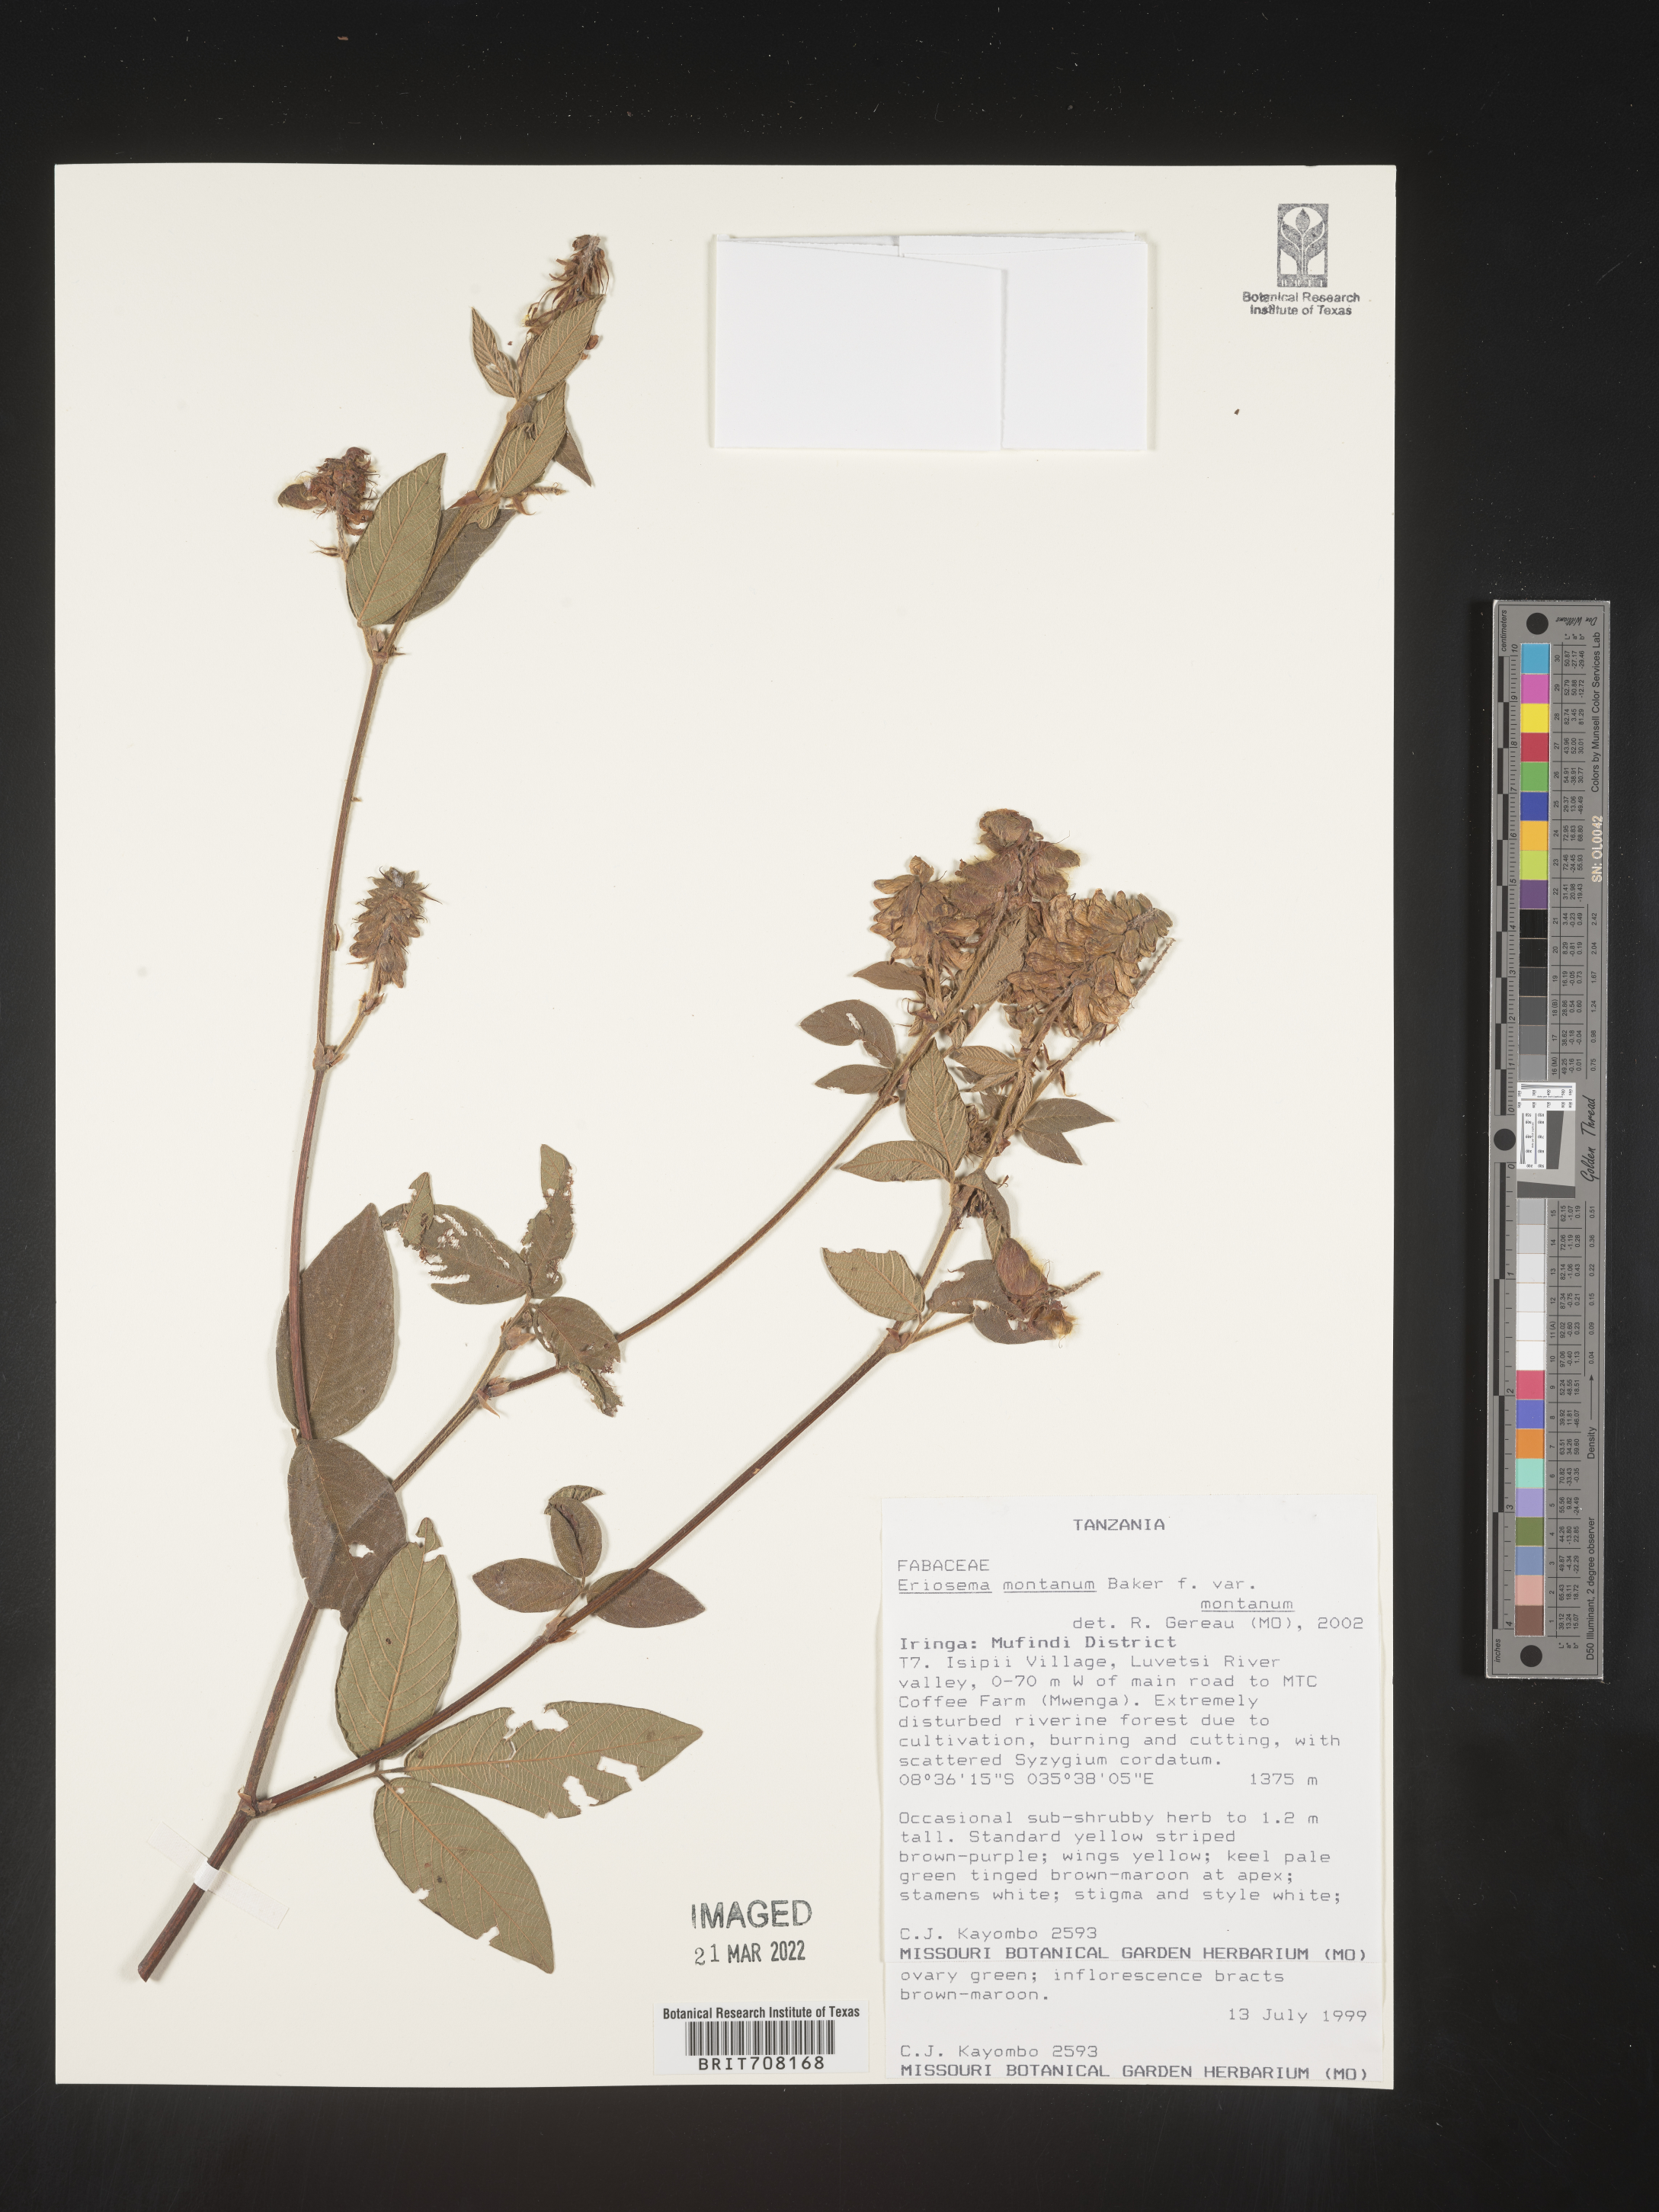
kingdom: Plantae
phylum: Tracheophyta
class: Magnoliopsida
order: Fabales
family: Fabaceae
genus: Eriosema
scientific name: Eriosema
